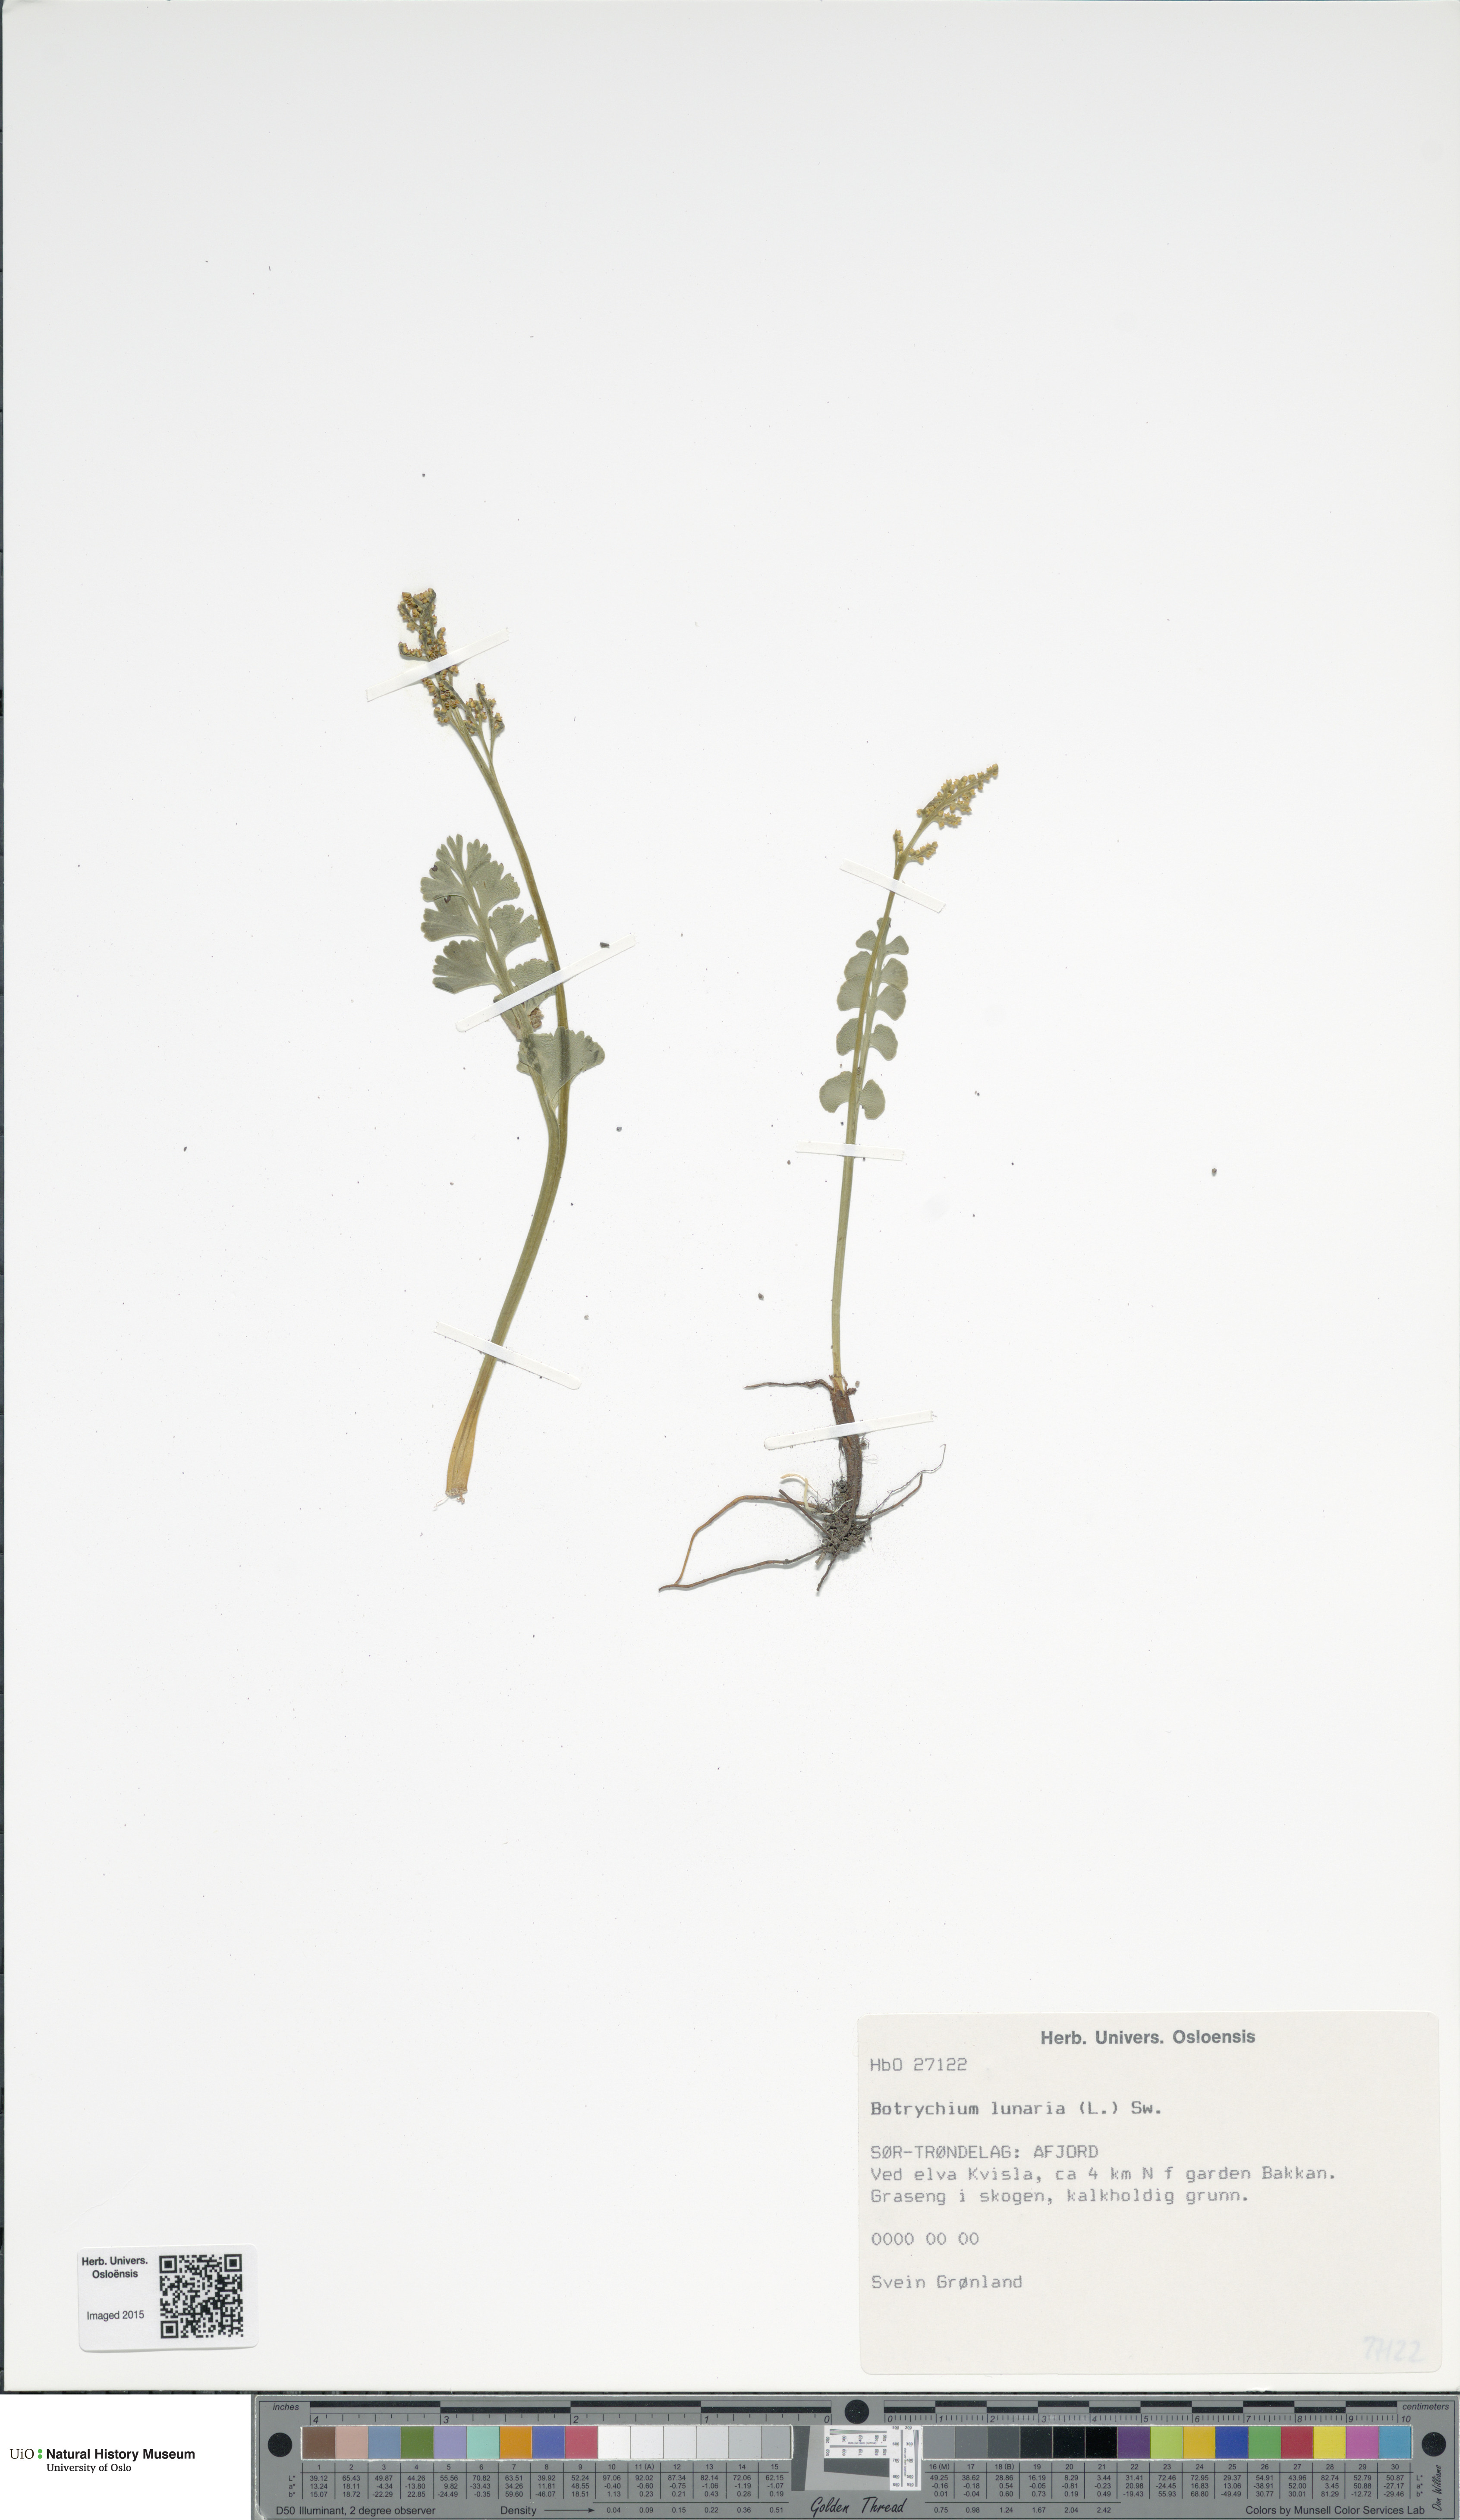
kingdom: Plantae
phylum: Tracheophyta
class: Polypodiopsida
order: Ophioglossales
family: Ophioglossaceae
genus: Botrychium
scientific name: Botrychium lunaria
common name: Moonwort
